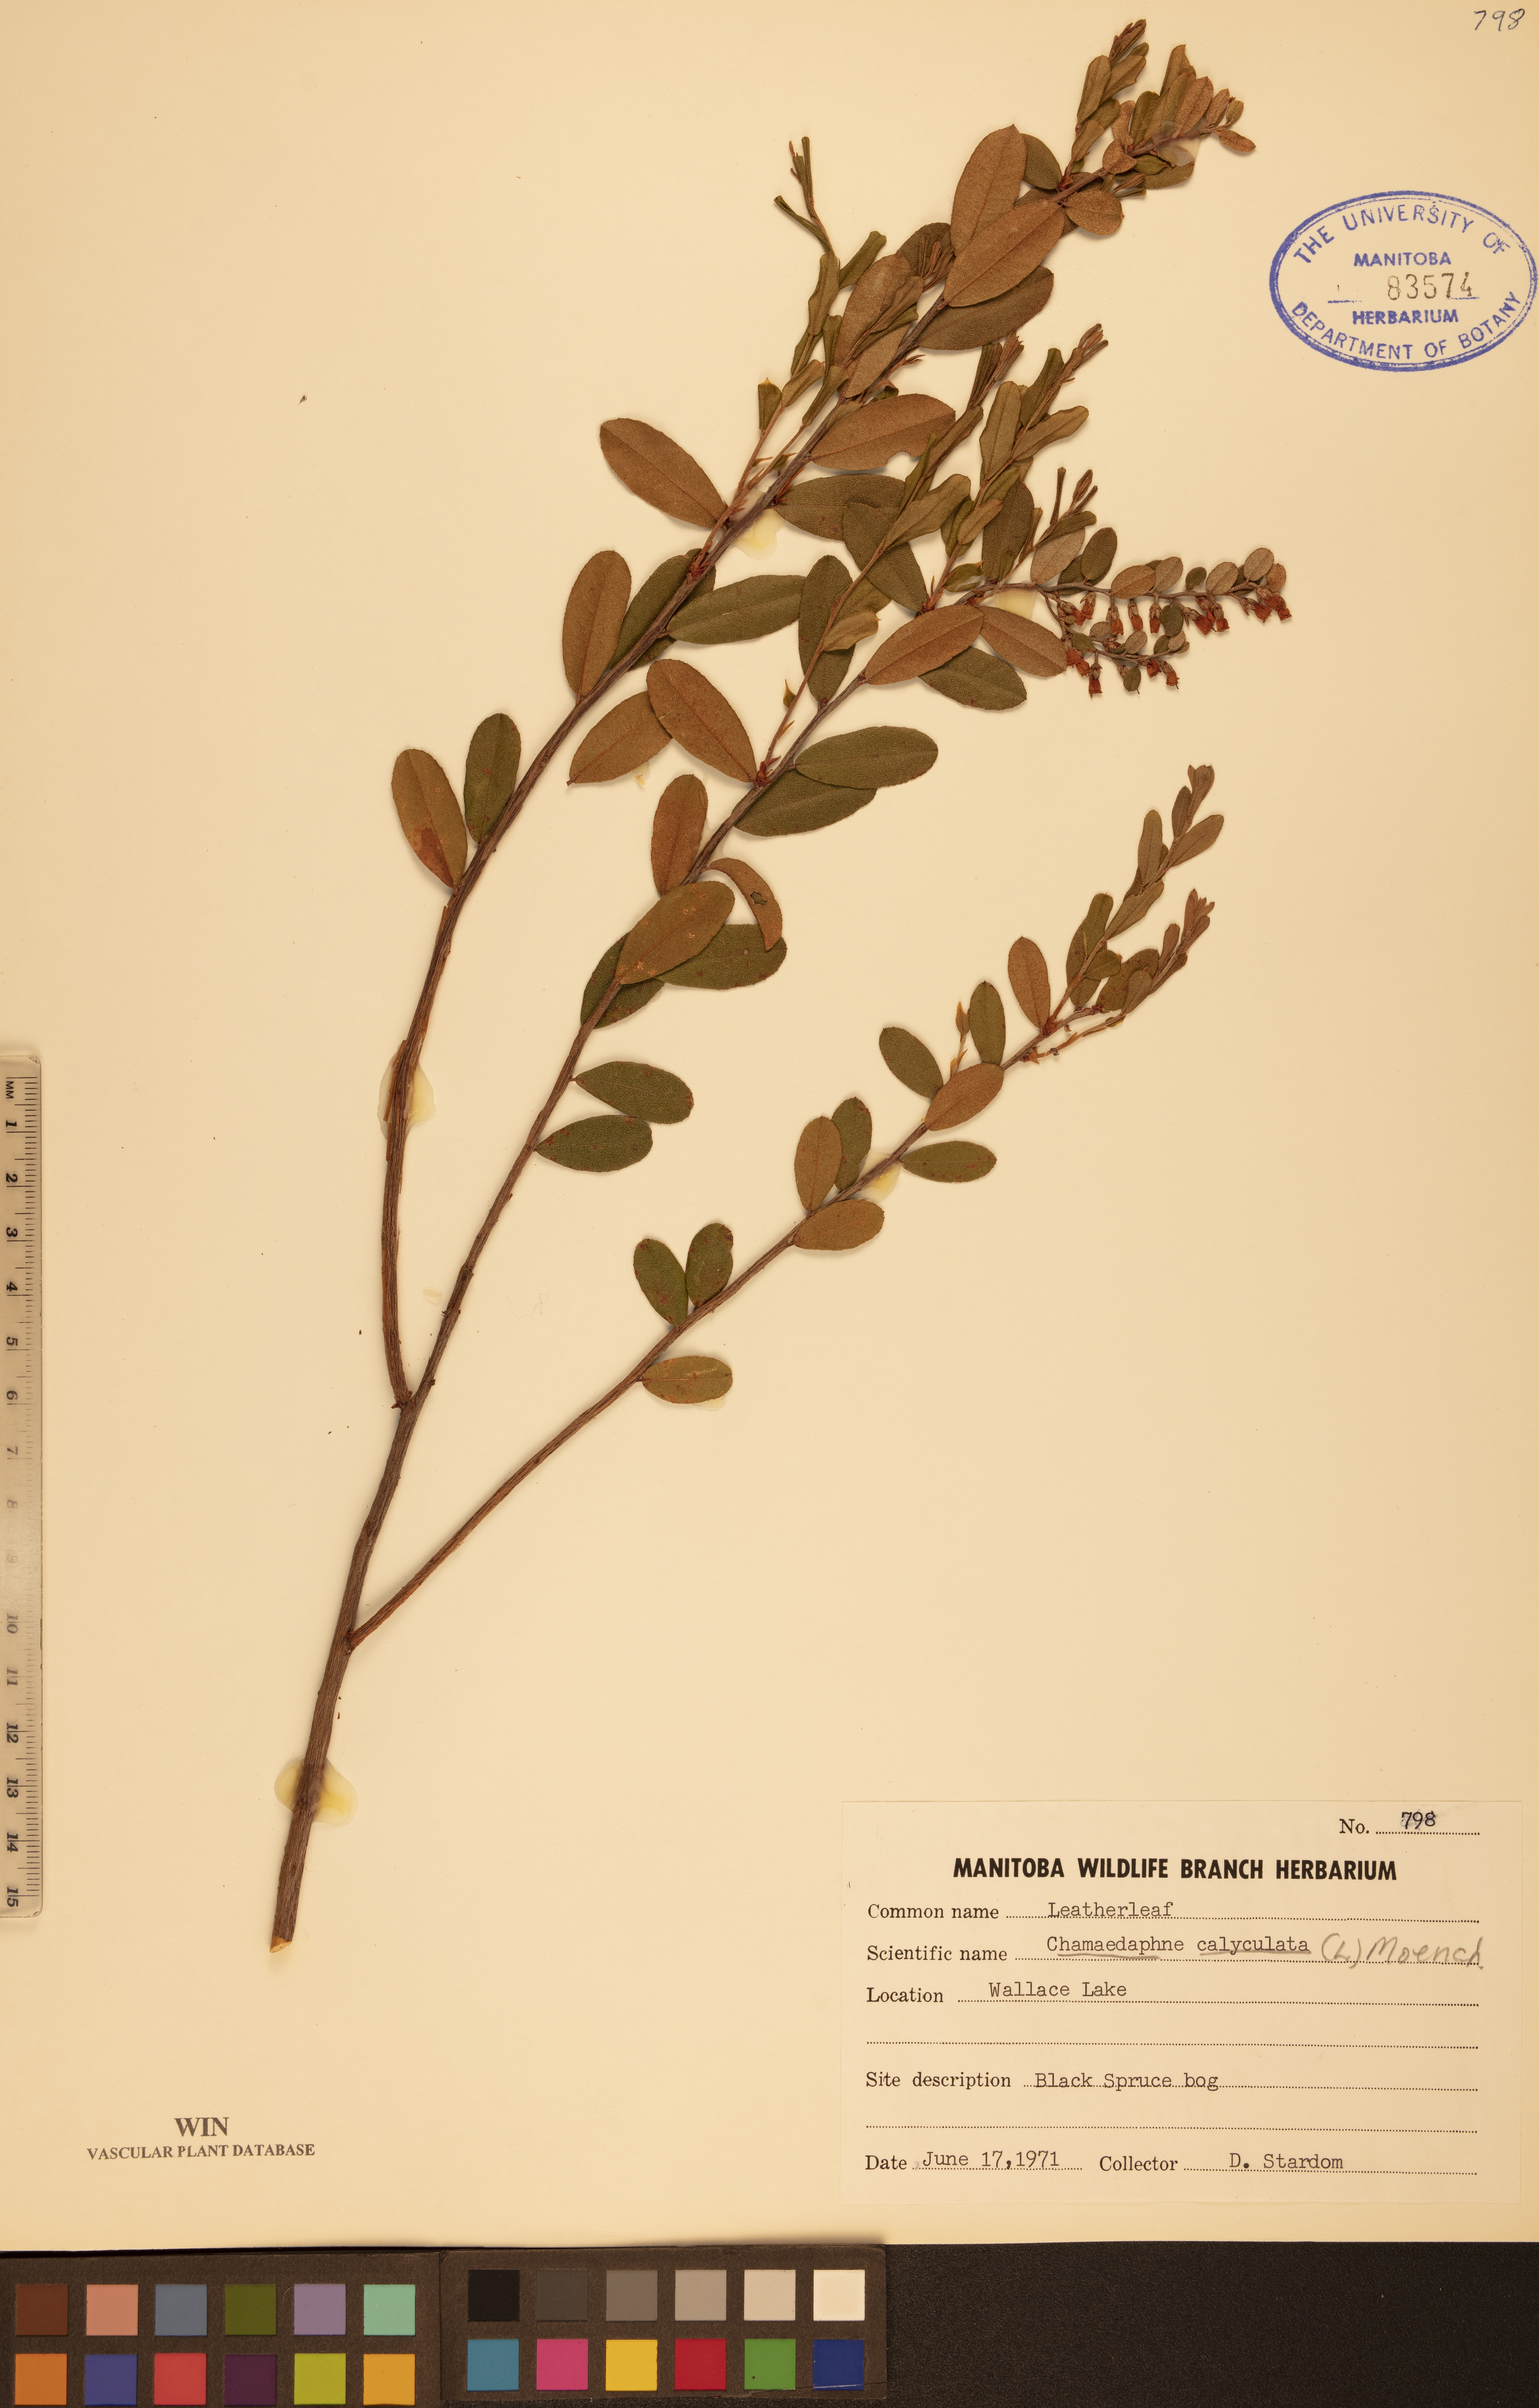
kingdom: Plantae
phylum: Tracheophyta
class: Magnoliopsida
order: Ericales
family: Ericaceae
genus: Chamaedaphne
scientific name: Chamaedaphne calyculata
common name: Leatherleaf
